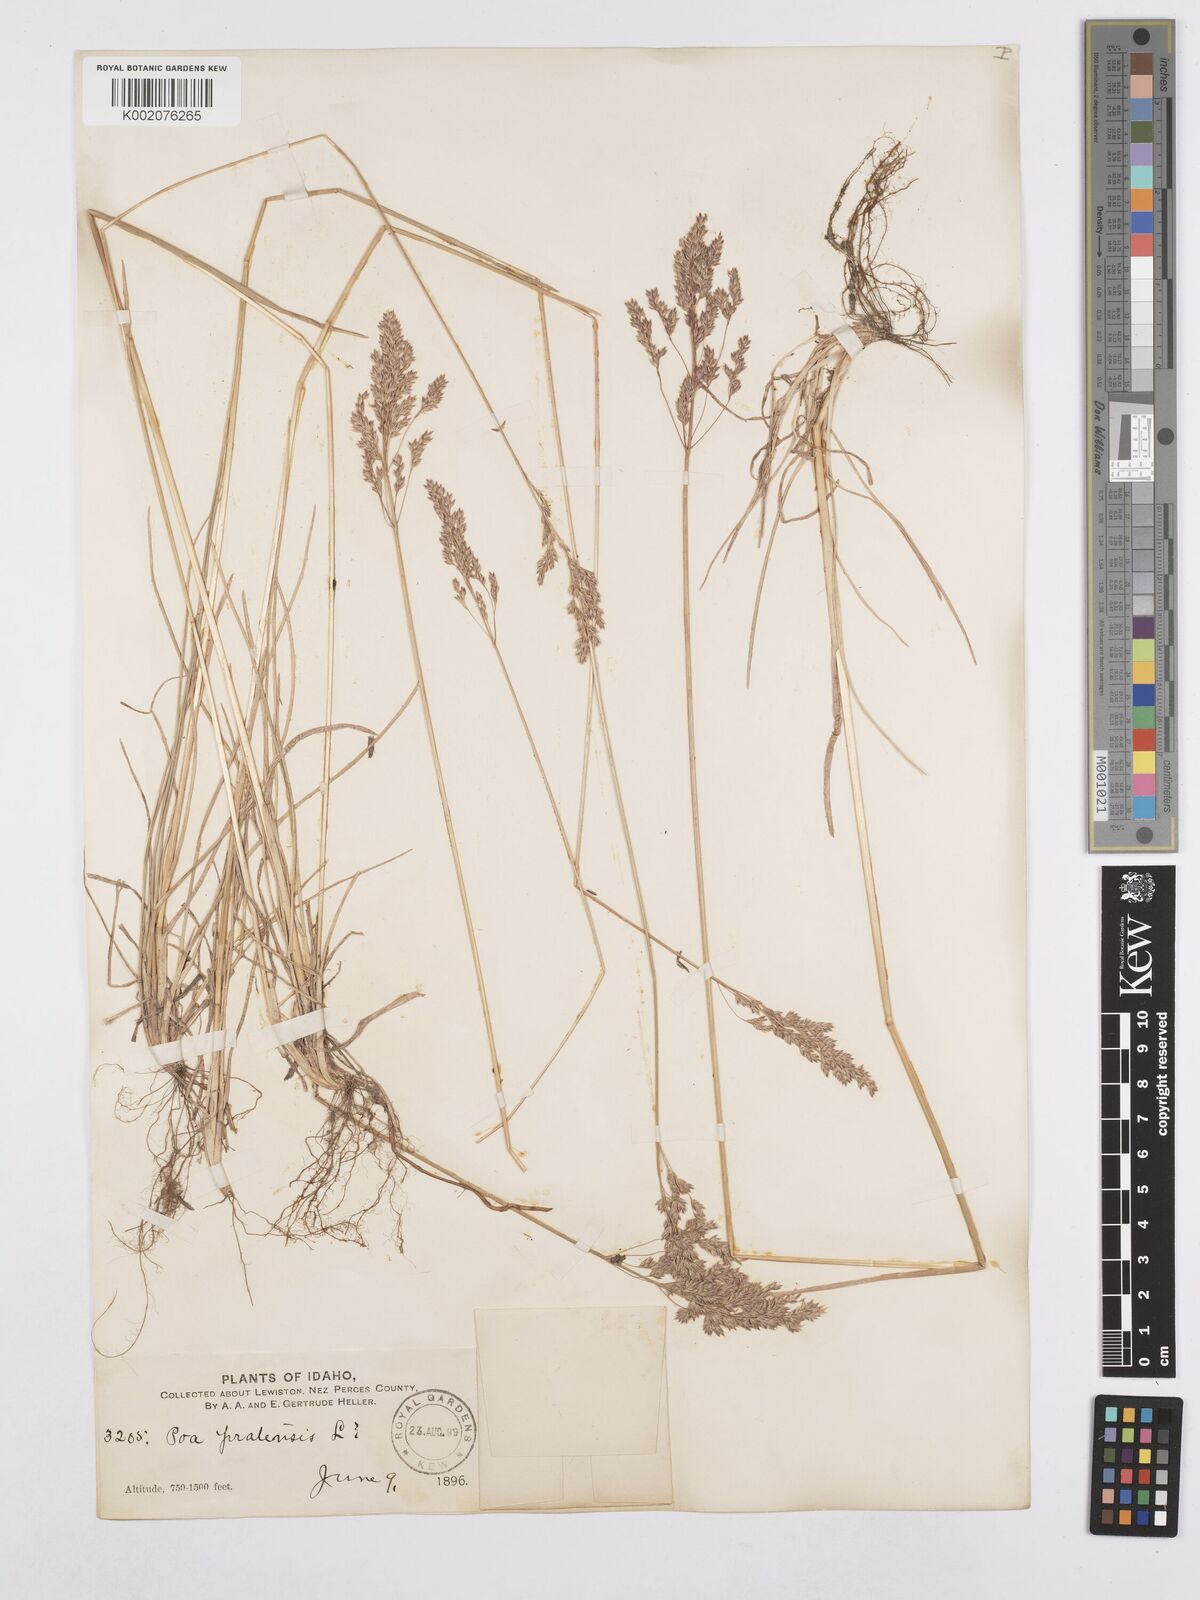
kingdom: Plantae
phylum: Tracheophyta
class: Liliopsida
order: Poales
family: Poaceae
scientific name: Poaceae
